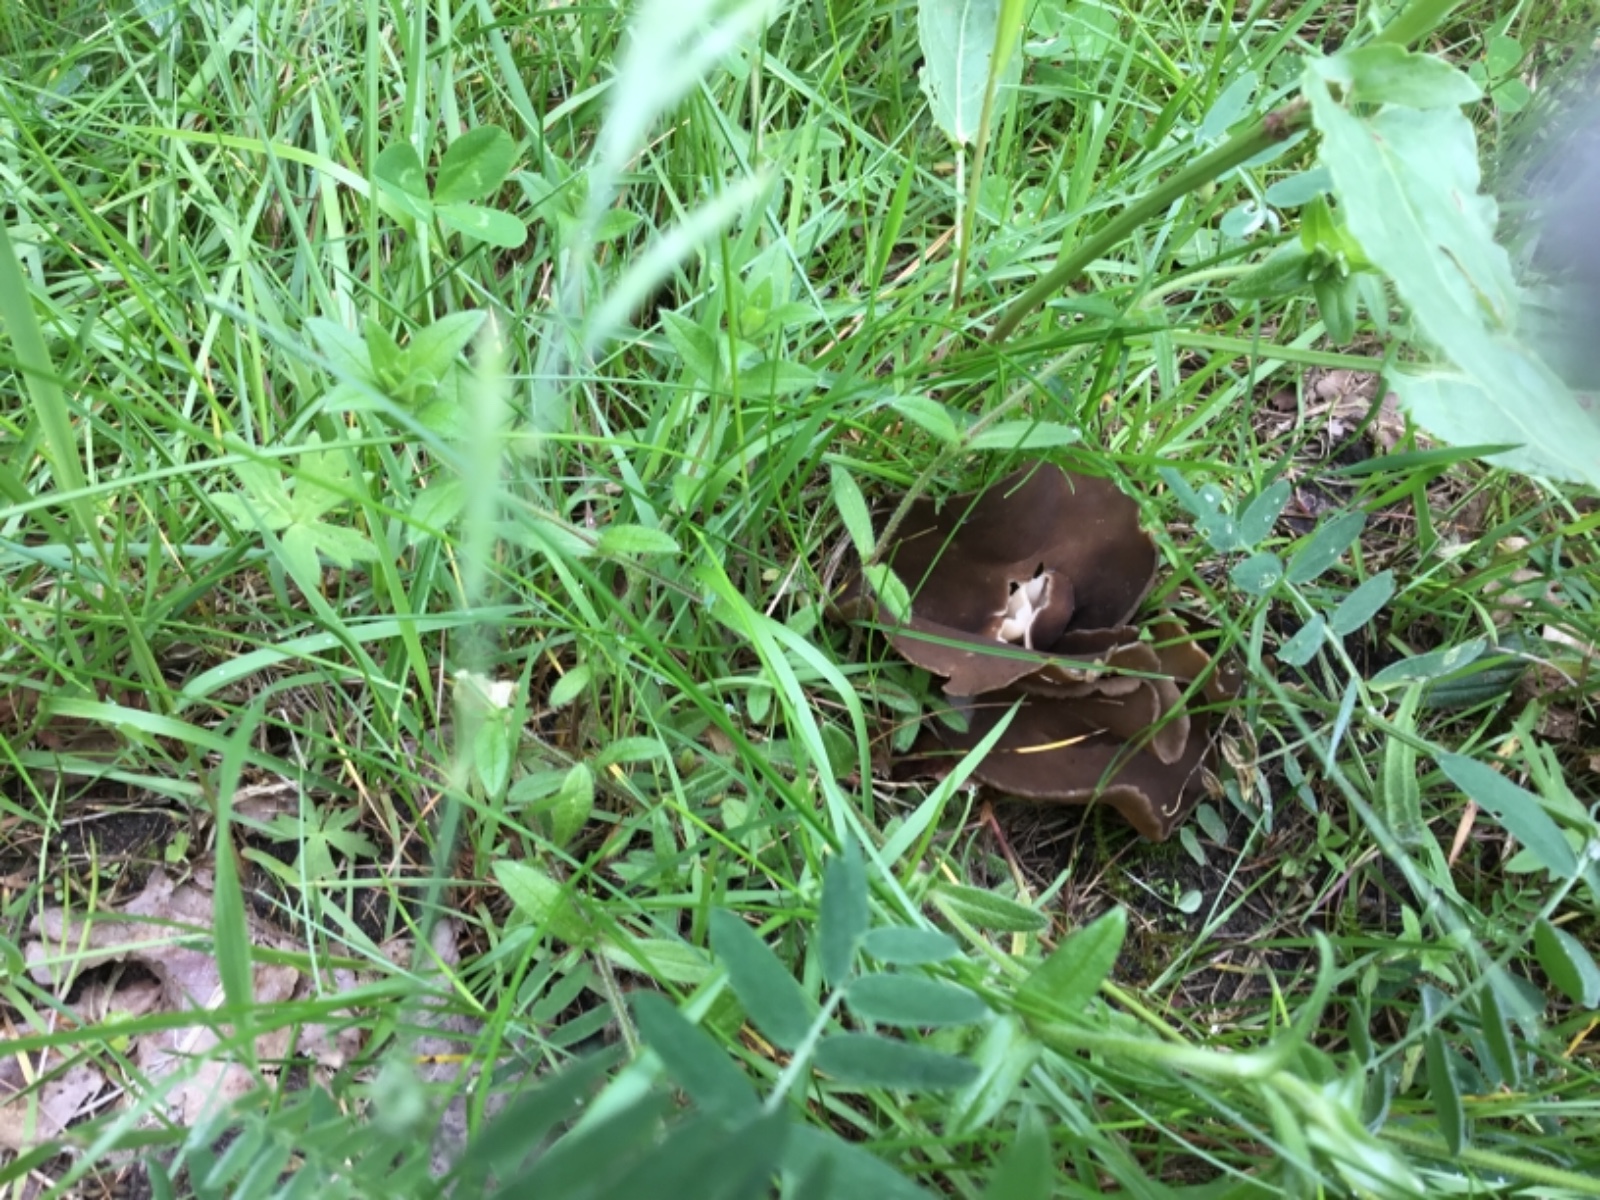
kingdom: Fungi
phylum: Ascomycota
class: Pezizomycetes
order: Pezizales
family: Helvellaceae
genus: Helvella
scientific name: Helvella
